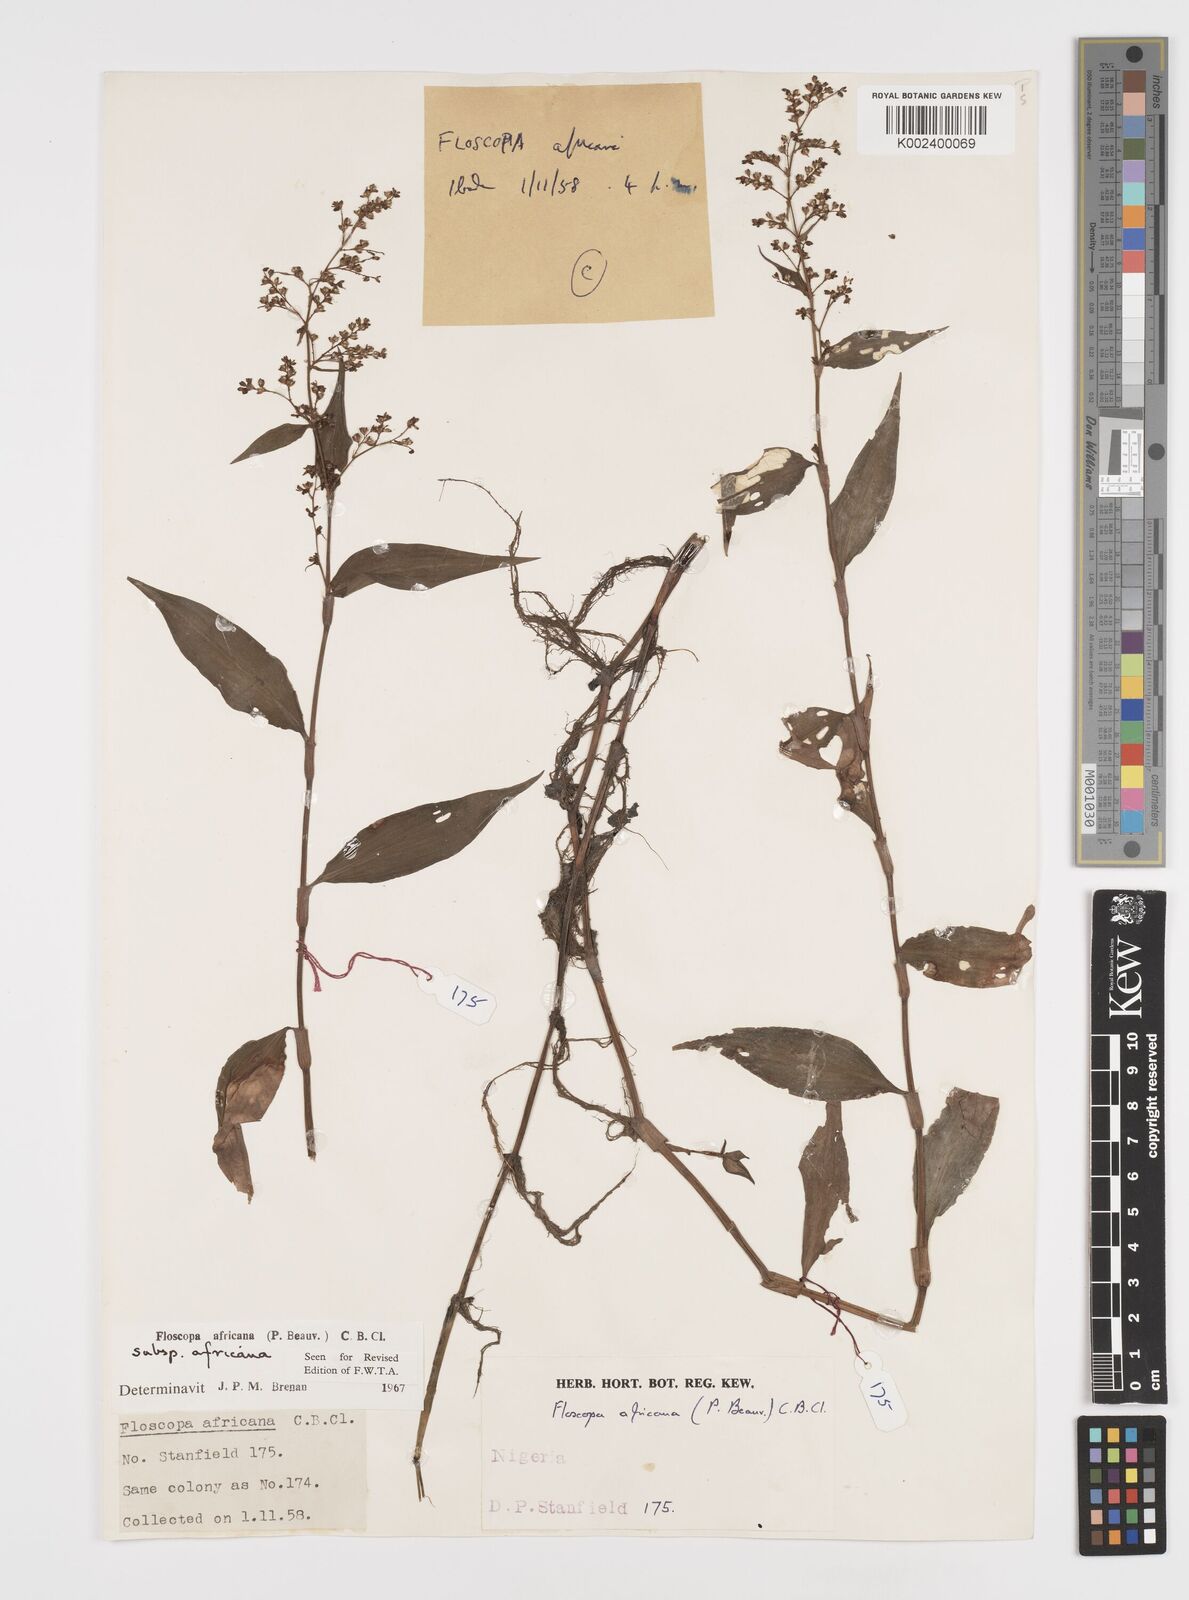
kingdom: Plantae
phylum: Tracheophyta
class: Liliopsida
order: Commelinales
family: Commelinaceae
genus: Floscopa
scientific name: Floscopa africana
